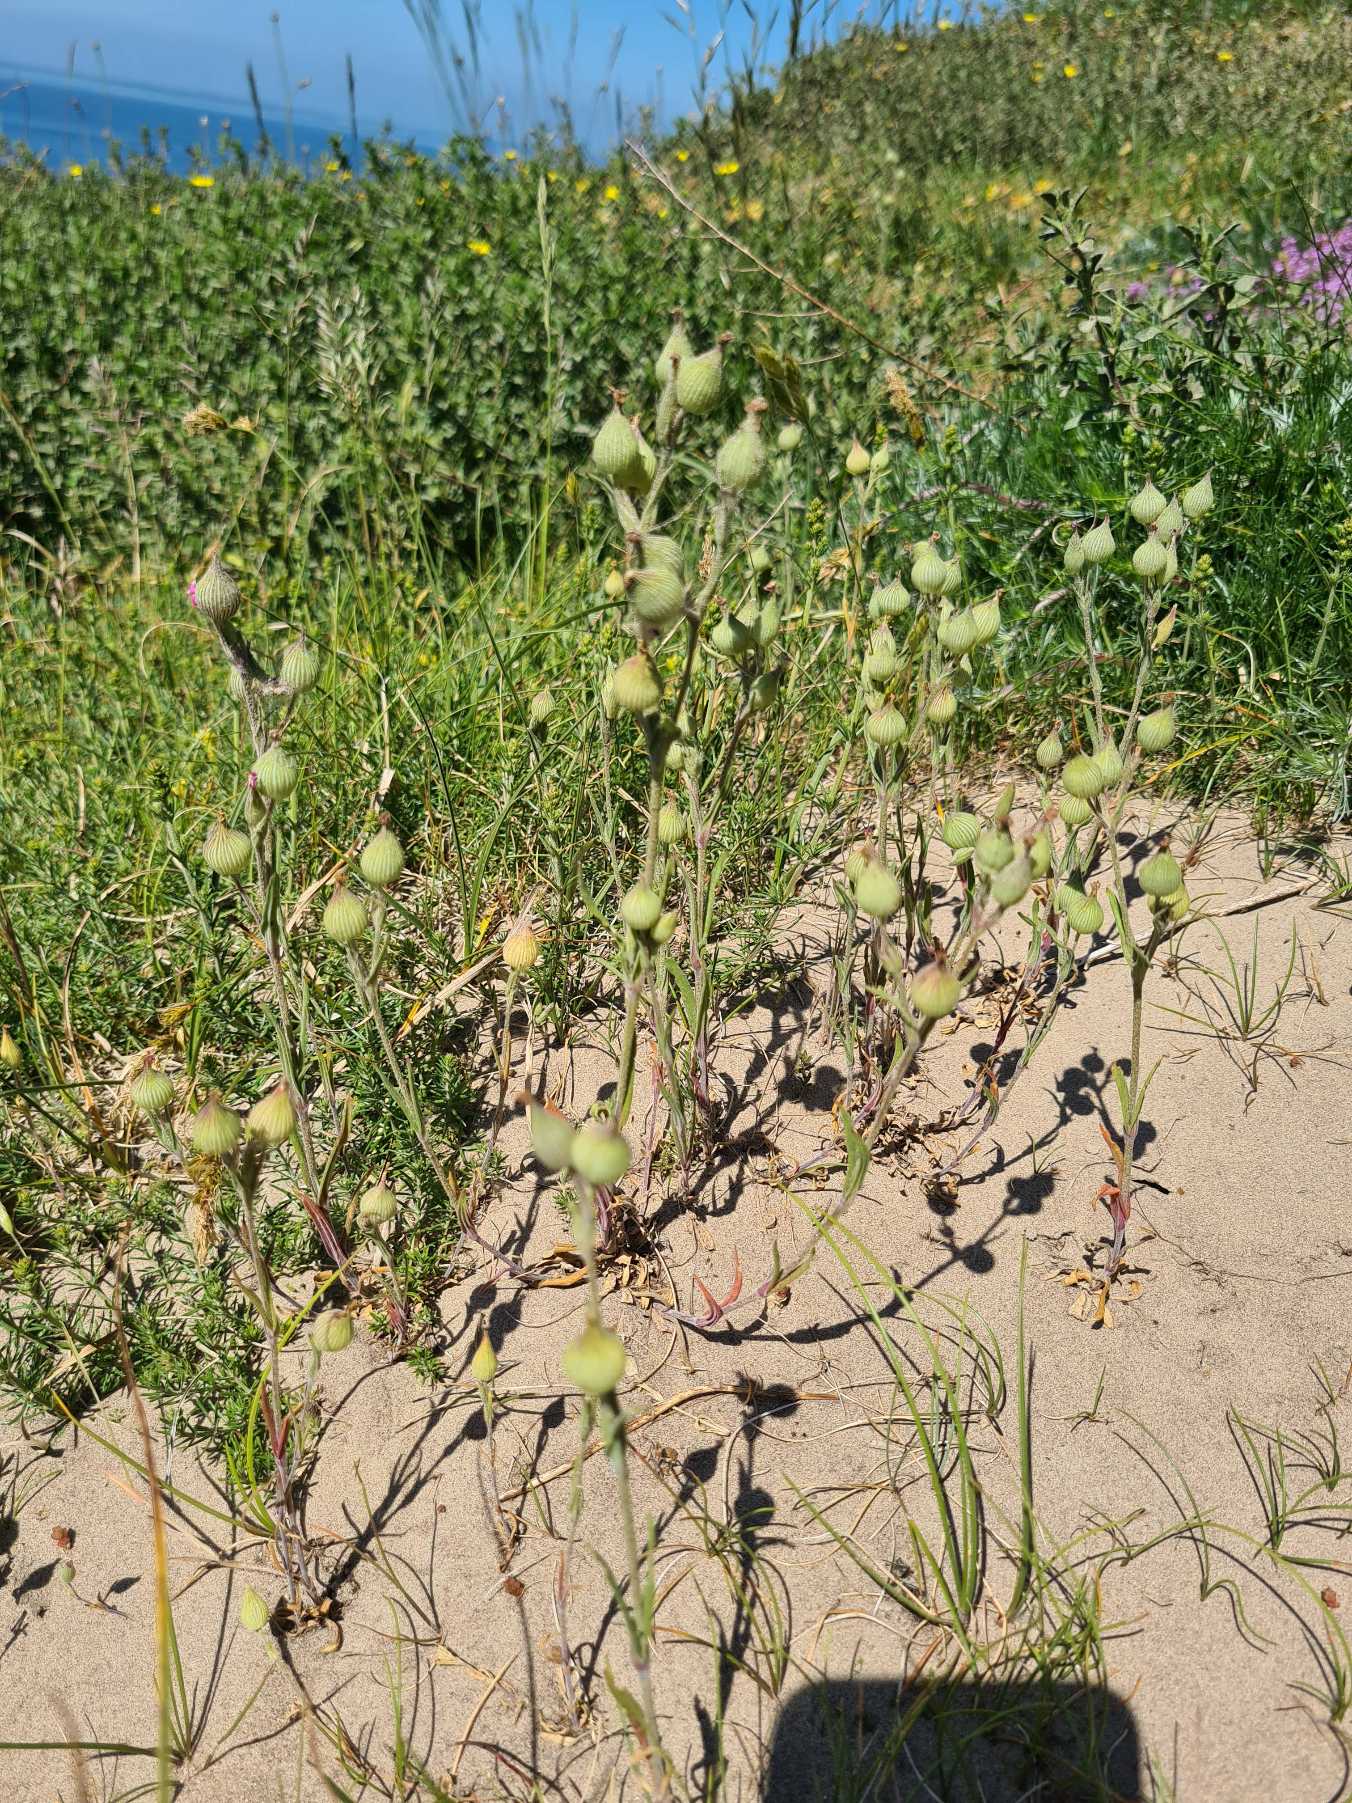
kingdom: Plantae
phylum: Tracheophyta
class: Magnoliopsida
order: Caryophyllales
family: Caryophyllaceae
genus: Silene
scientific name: Silene conica
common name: Kegle-limurt
